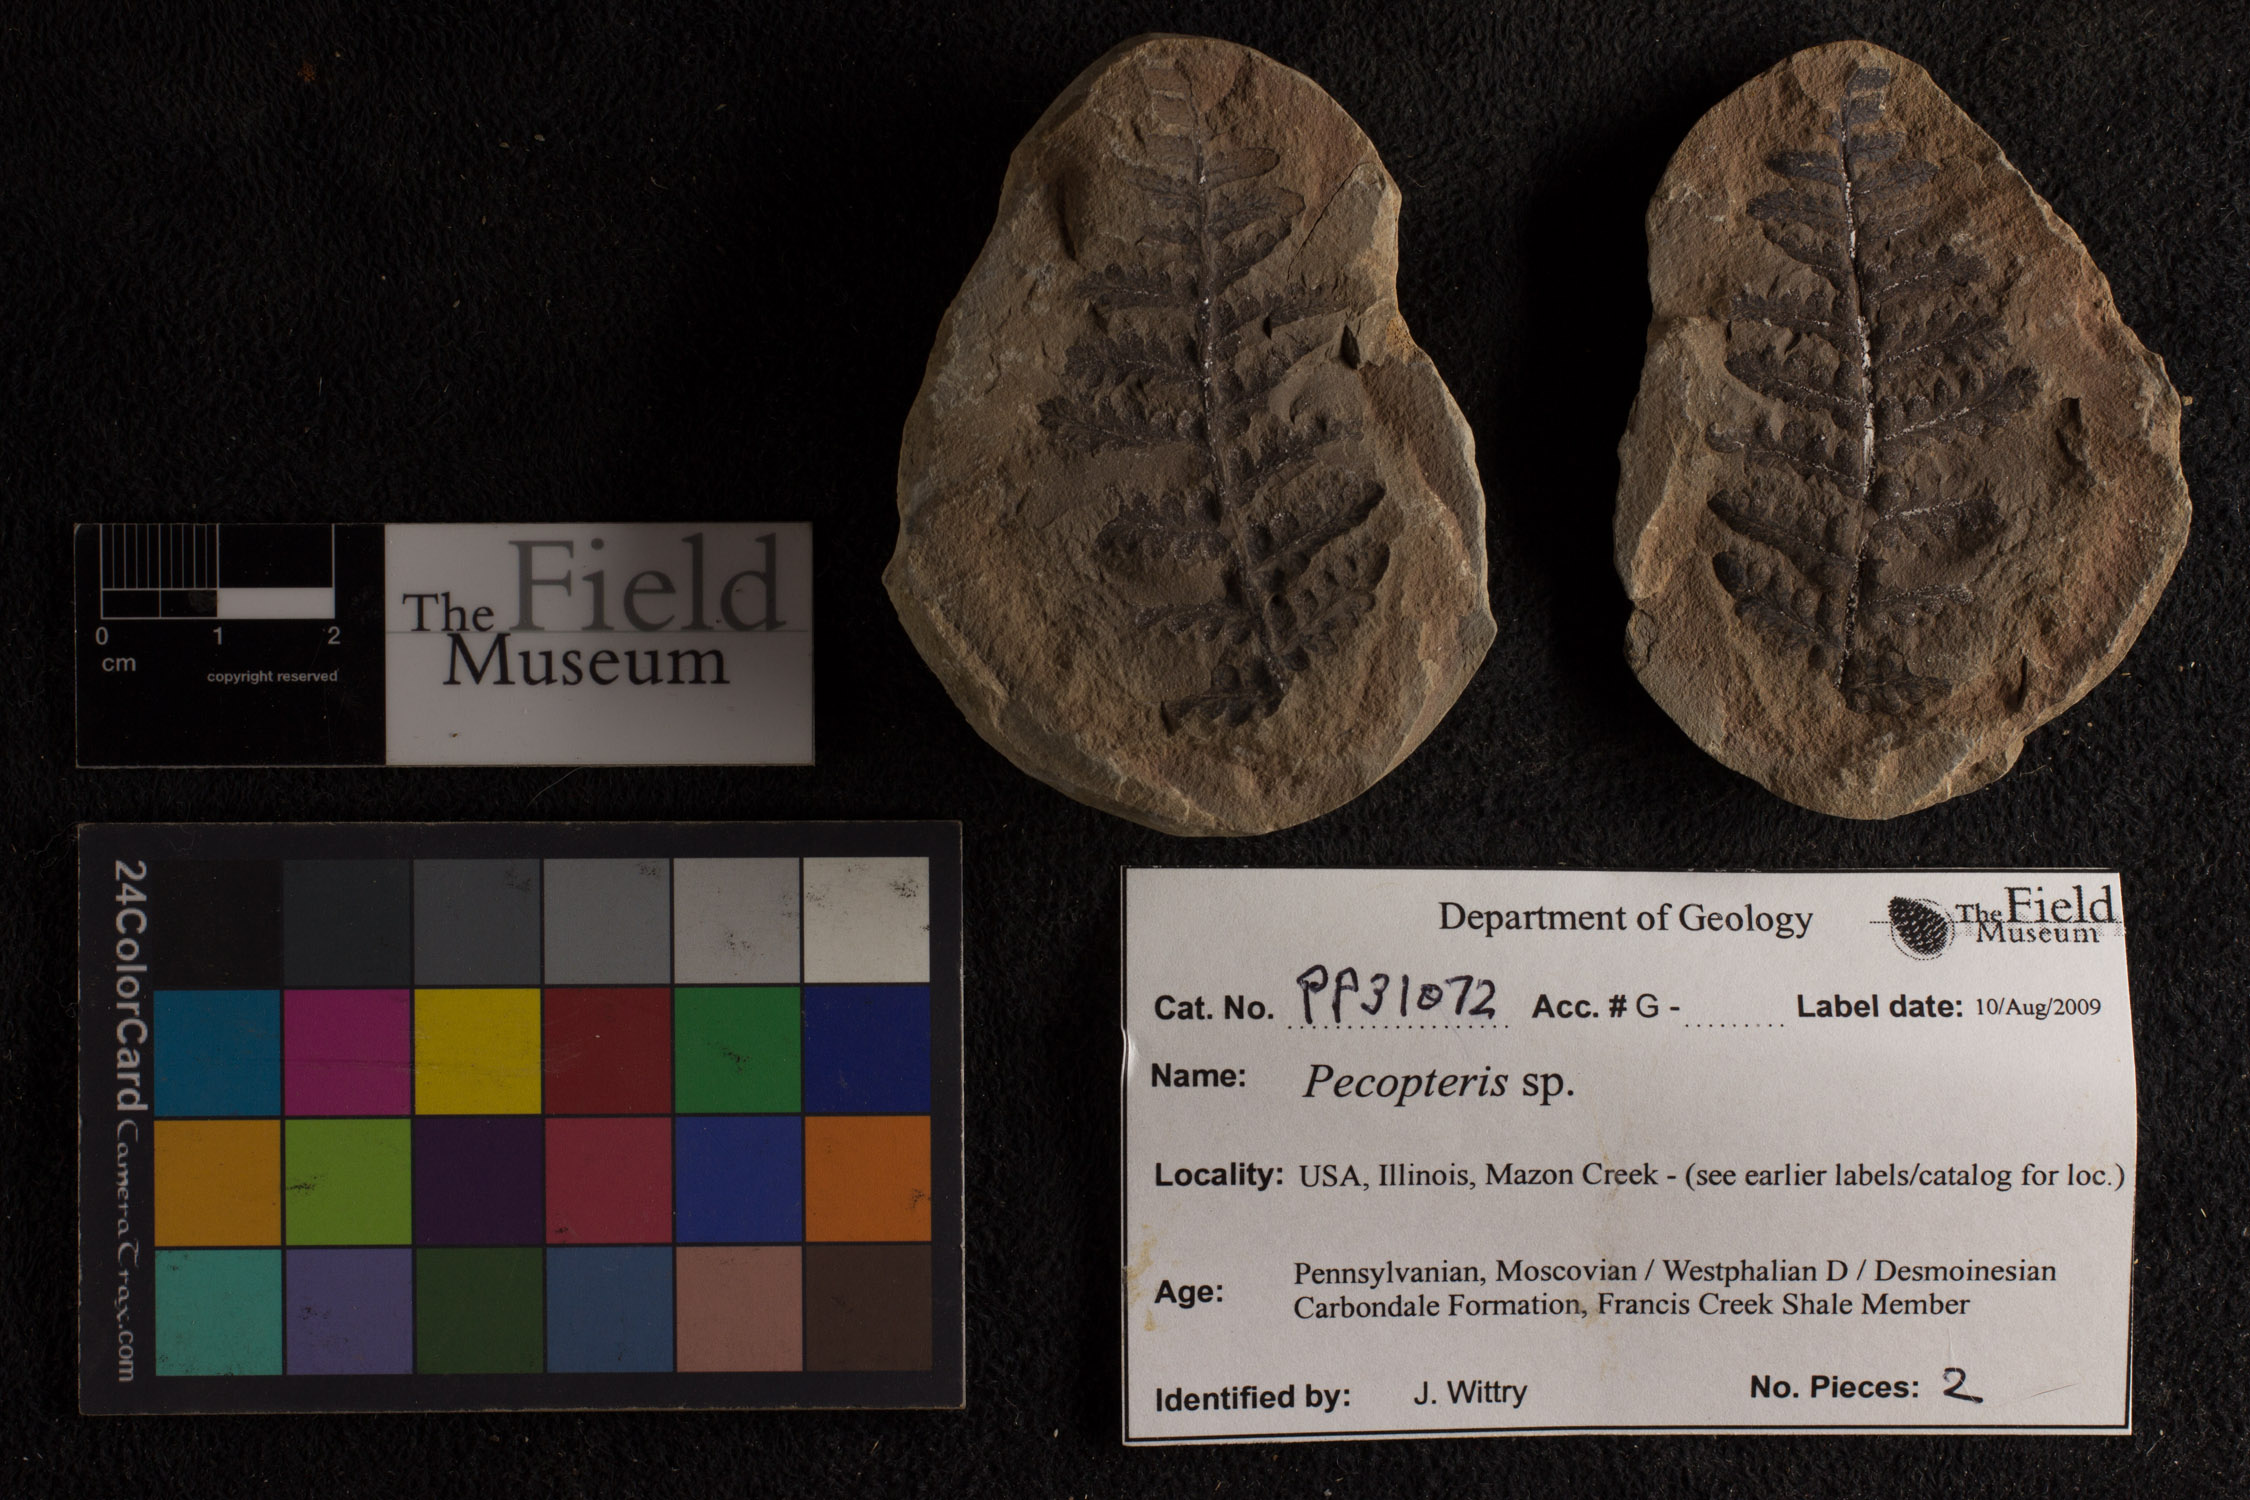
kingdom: Plantae
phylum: Tracheophyta
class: Polypodiopsida
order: Marattiales
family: Asterothecaceae
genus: Pecopteris
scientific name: Pecopteris
